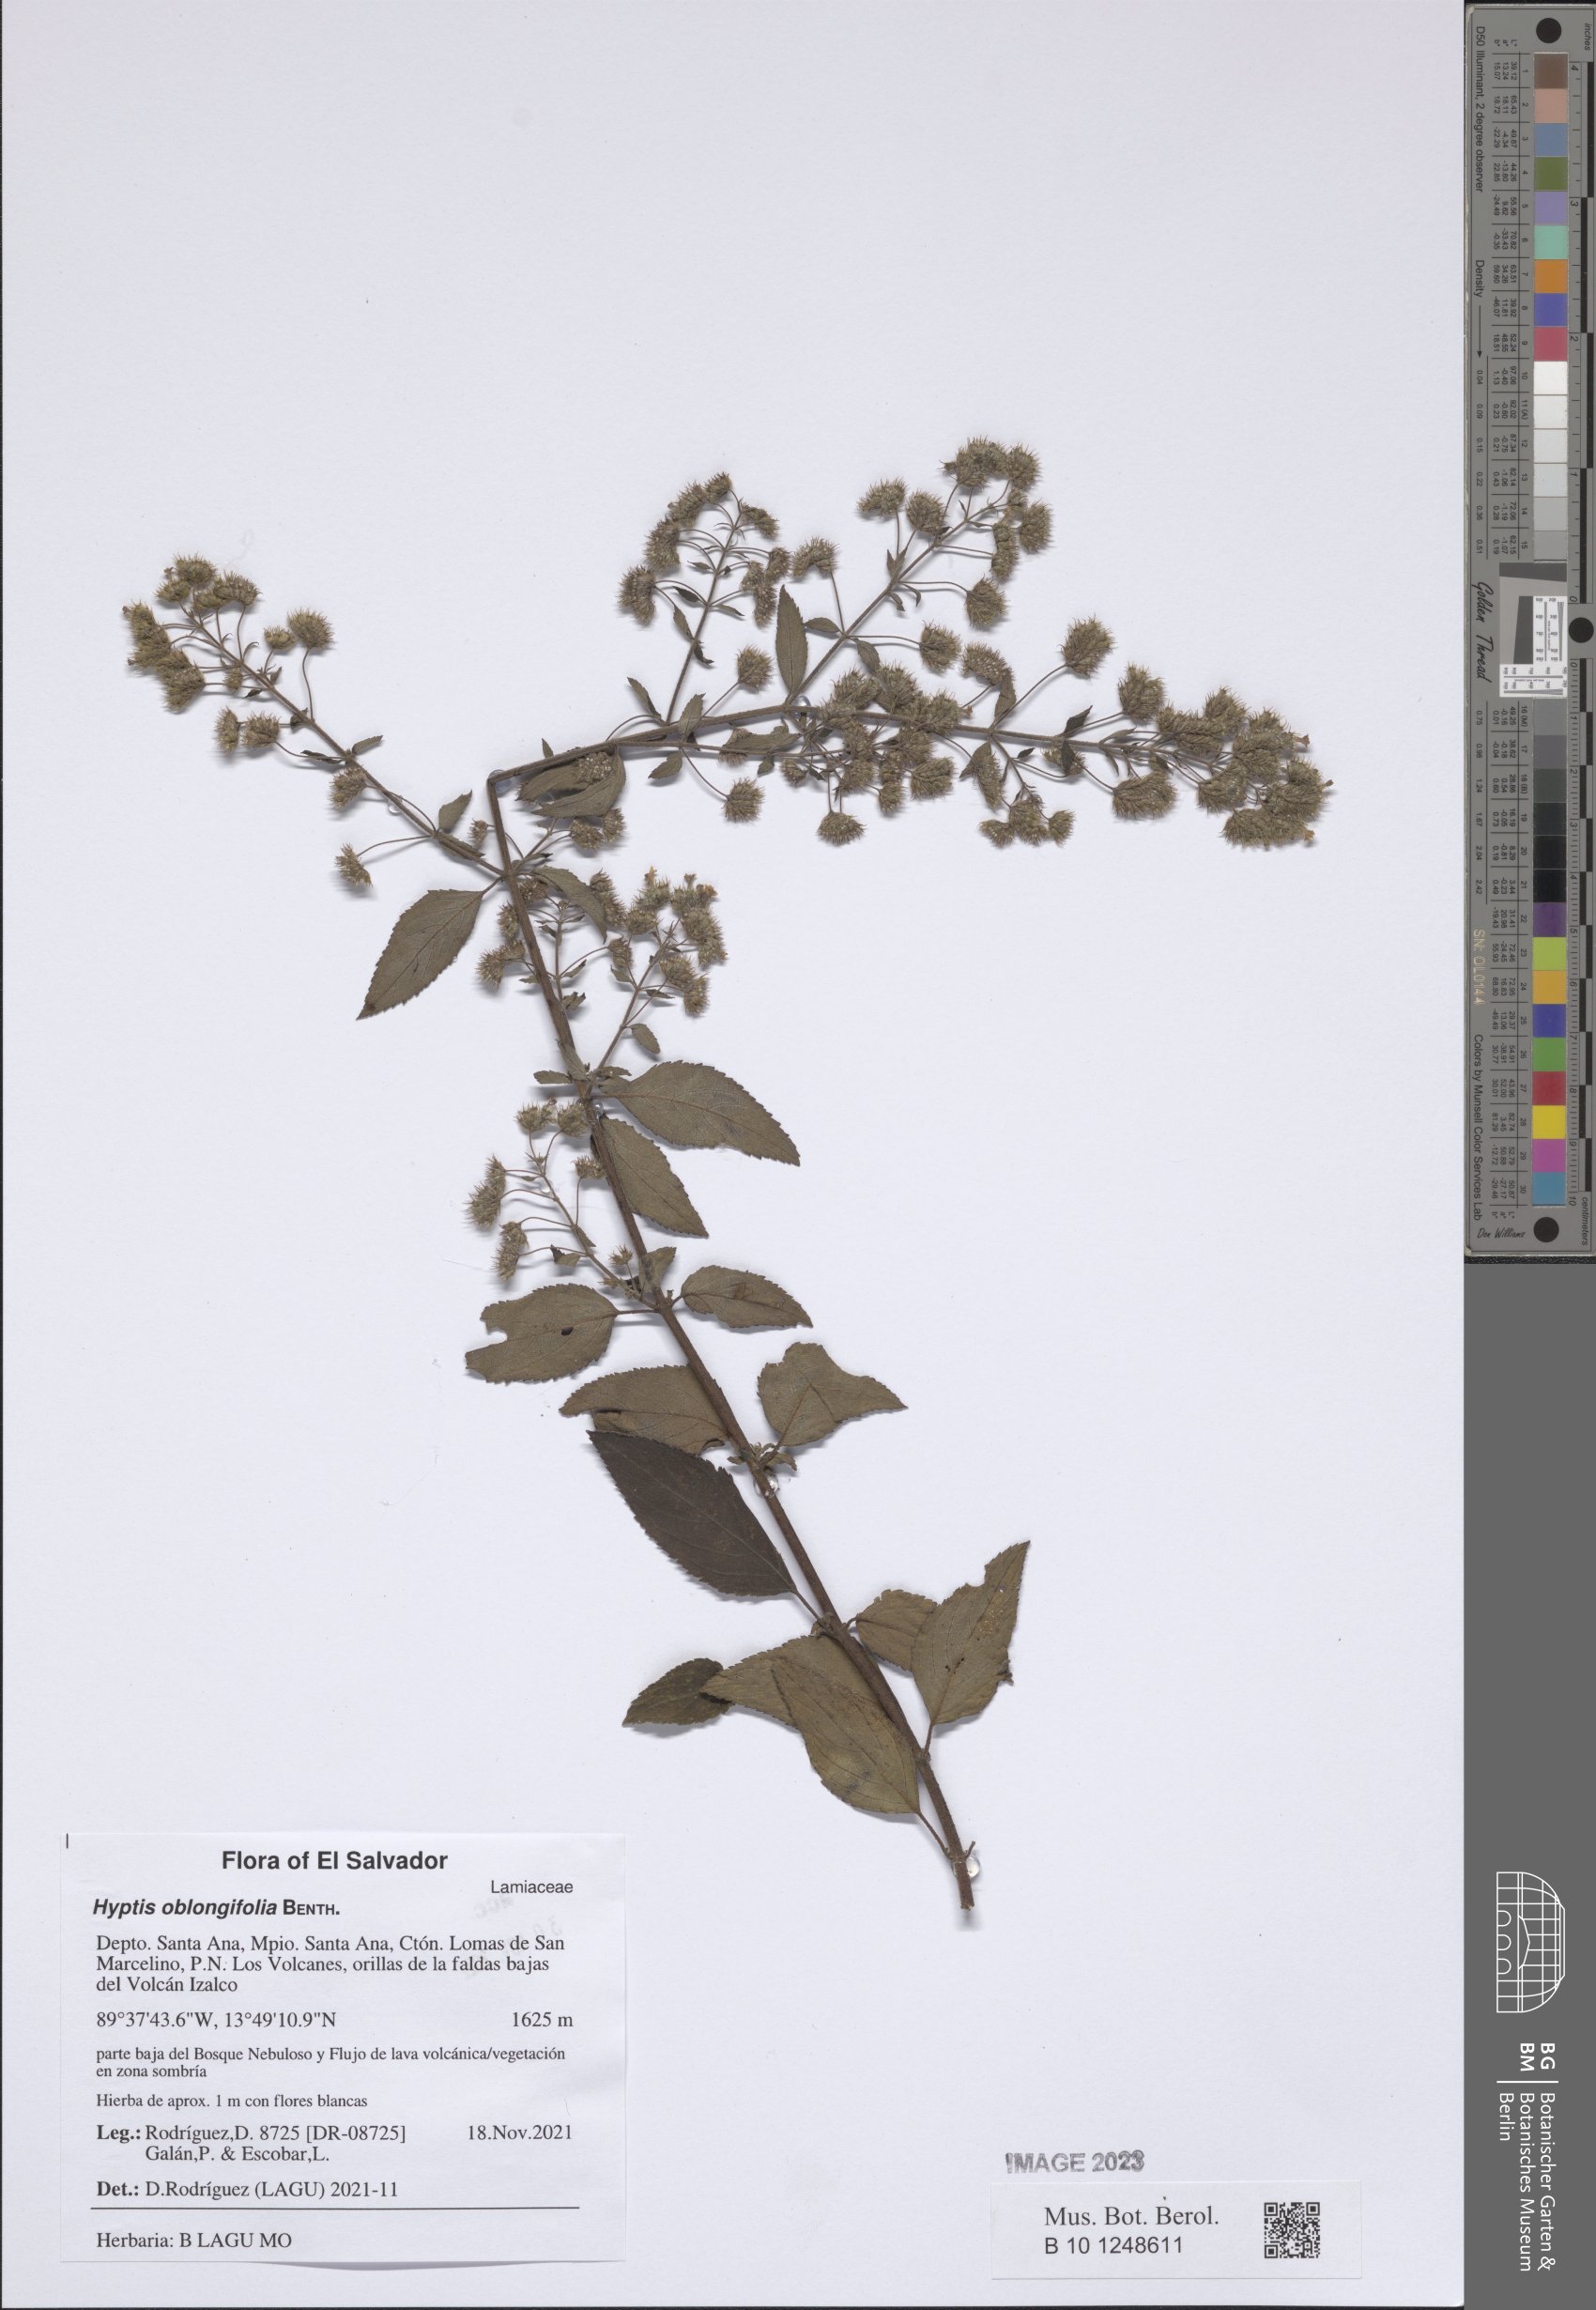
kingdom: Plantae
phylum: Tracheophyta
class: Magnoliopsida
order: Lamiales
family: Lamiaceae
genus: Mesosphaerum
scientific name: Mesosphaerum oblongifolium
